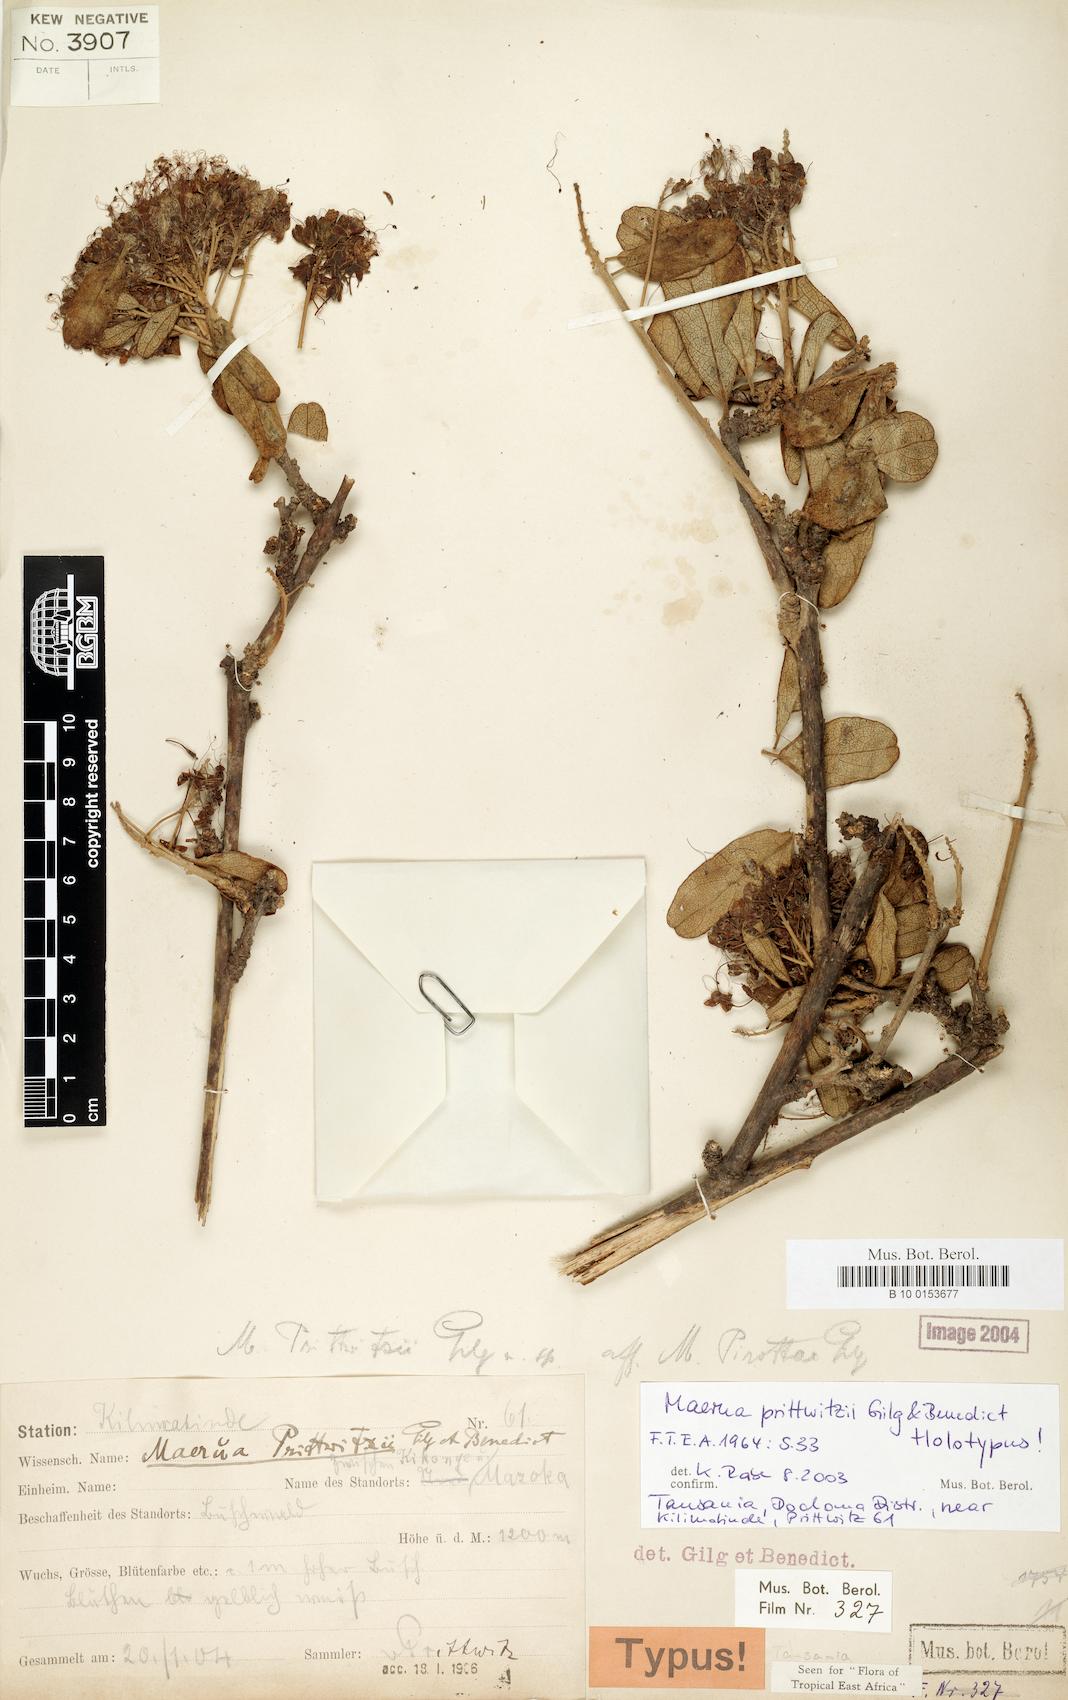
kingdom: Plantae
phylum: Tracheophyta
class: Magnoliopsida
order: Brassicales
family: Capparaceae
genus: Maerua
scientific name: Maerua prittwitzii
